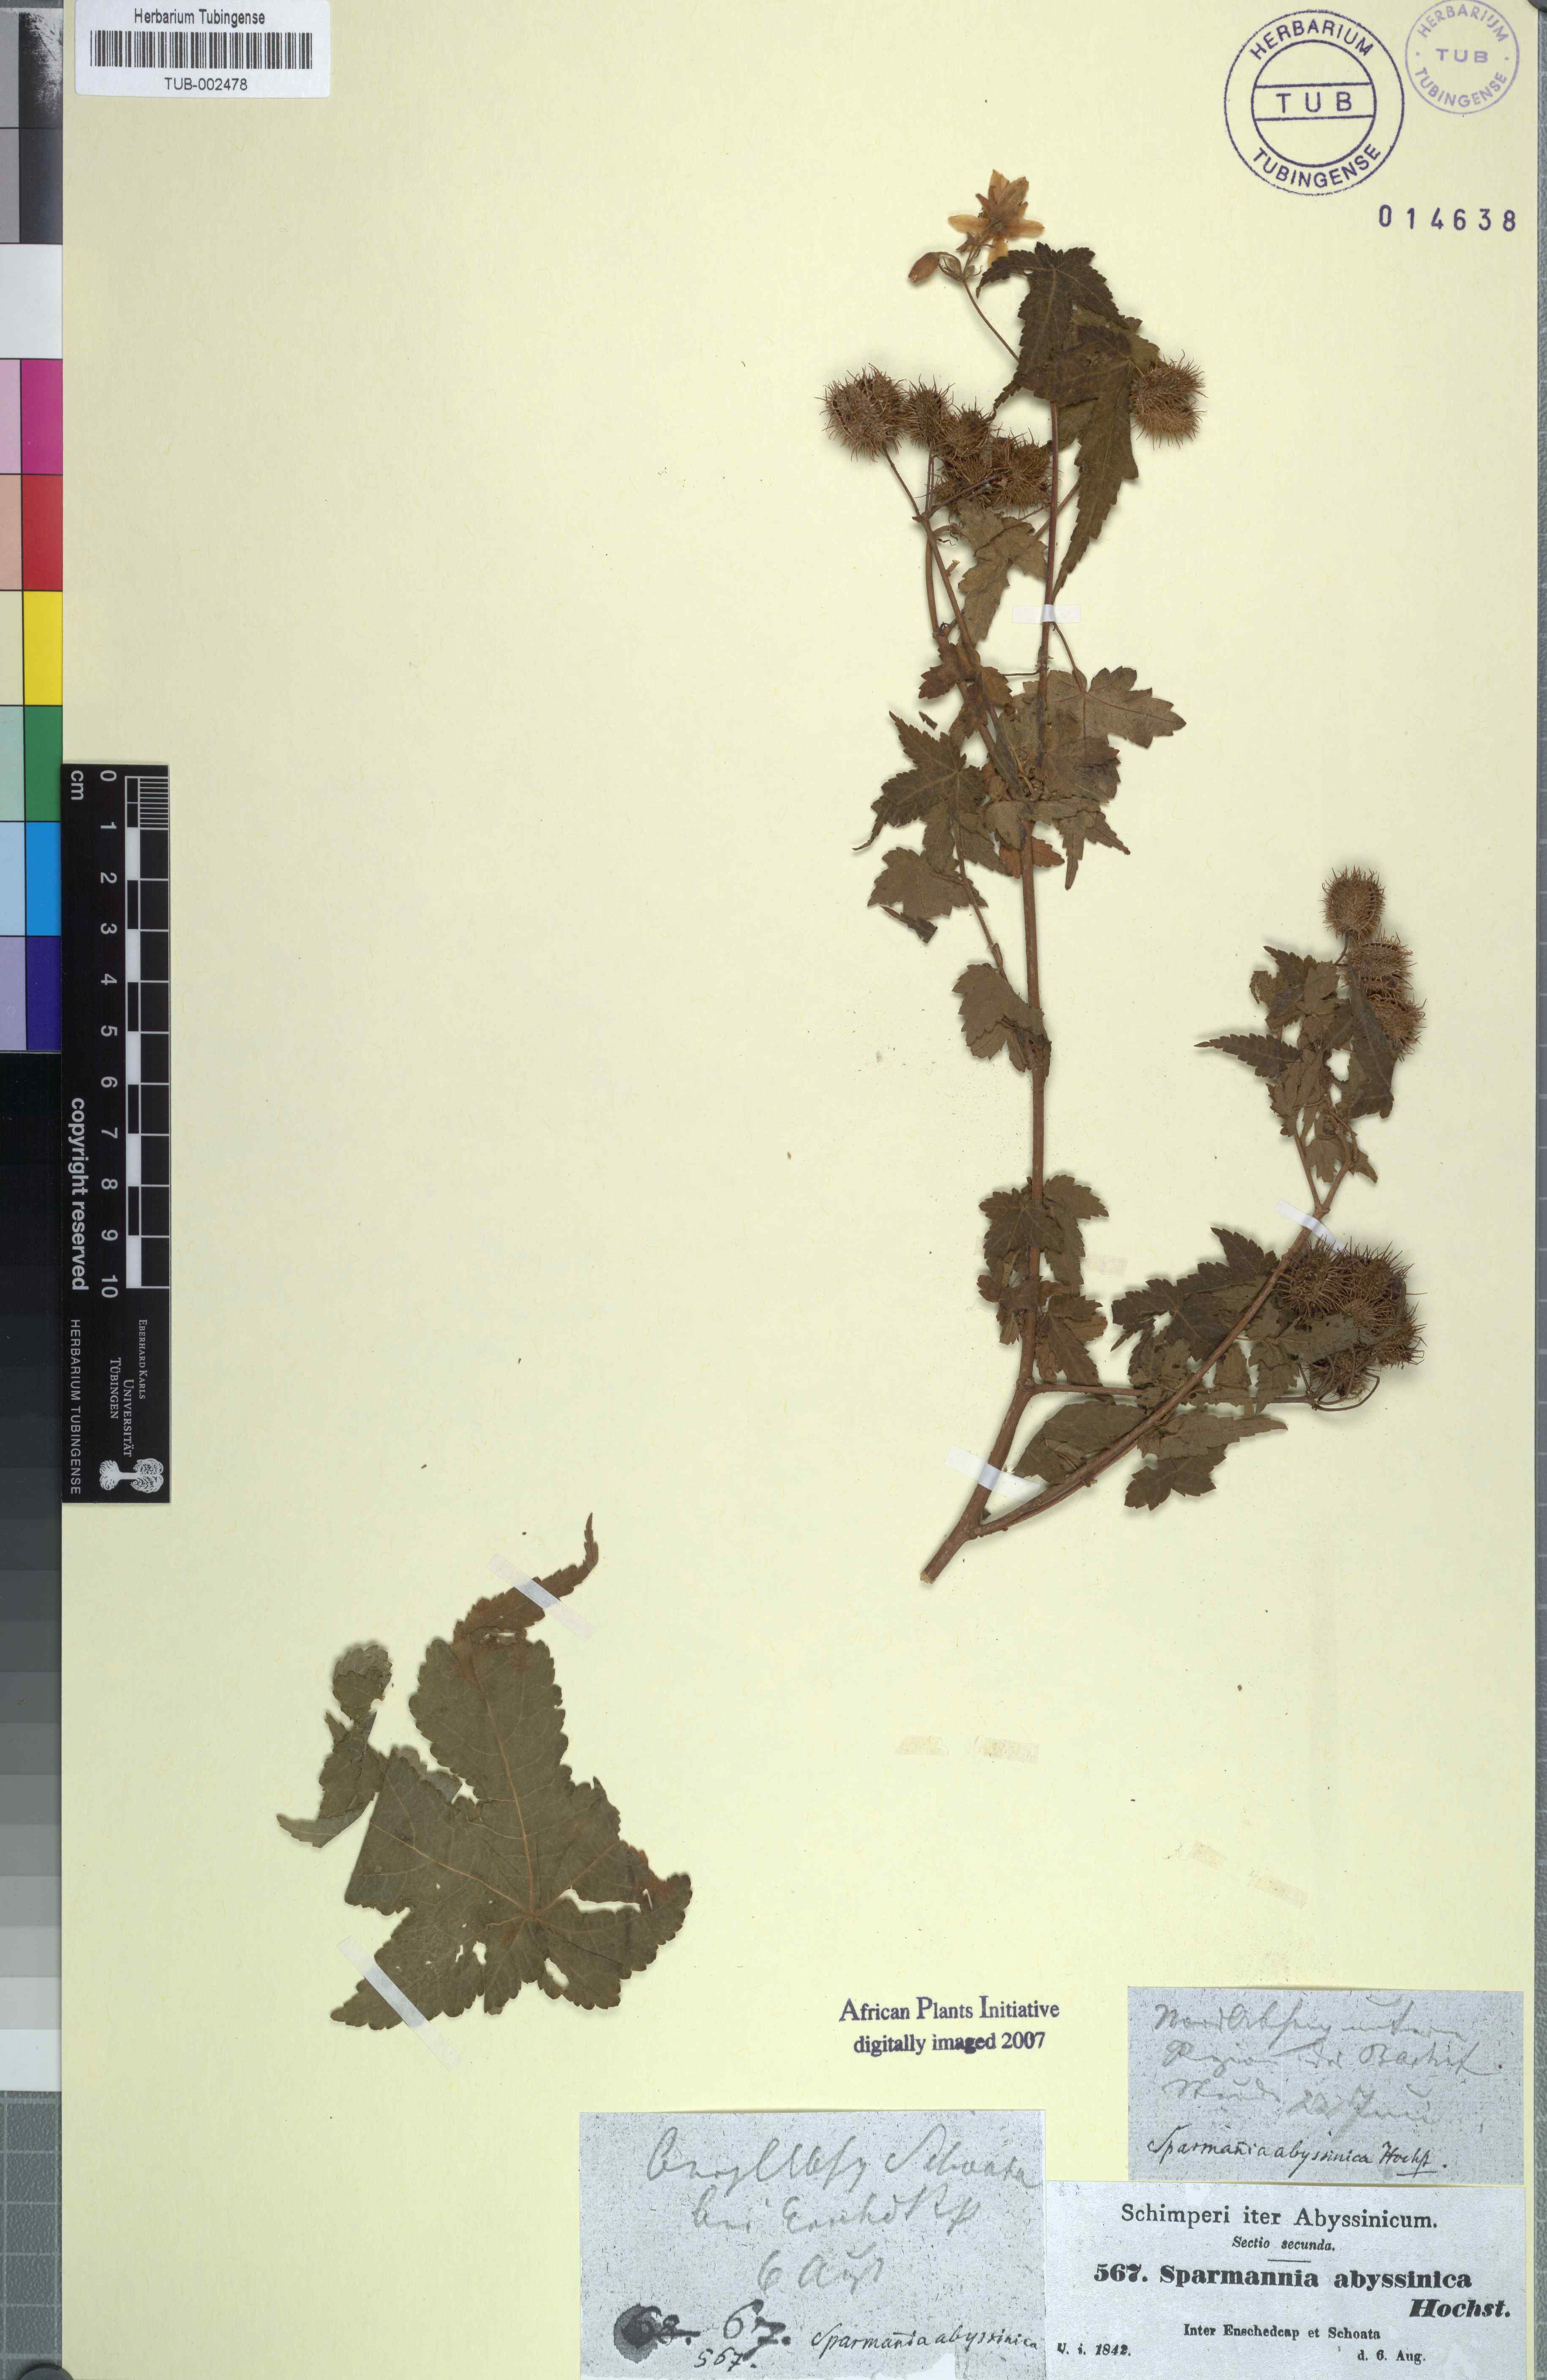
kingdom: Plantae
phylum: Tracheophyta
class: Magnoliopsida
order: Malvales
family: Malvaceae
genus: Sparrmannia
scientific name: Sparrmannia ricinocarpa
